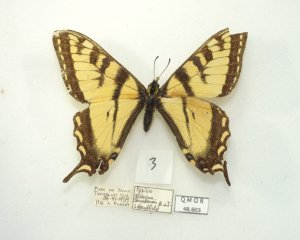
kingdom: Animalia
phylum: Arthropoda
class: Insecta
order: Lepidoptera
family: Papilionidae
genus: Pterourus
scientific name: Pterourus canadensis
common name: Canadian Tiger Swallowtail
